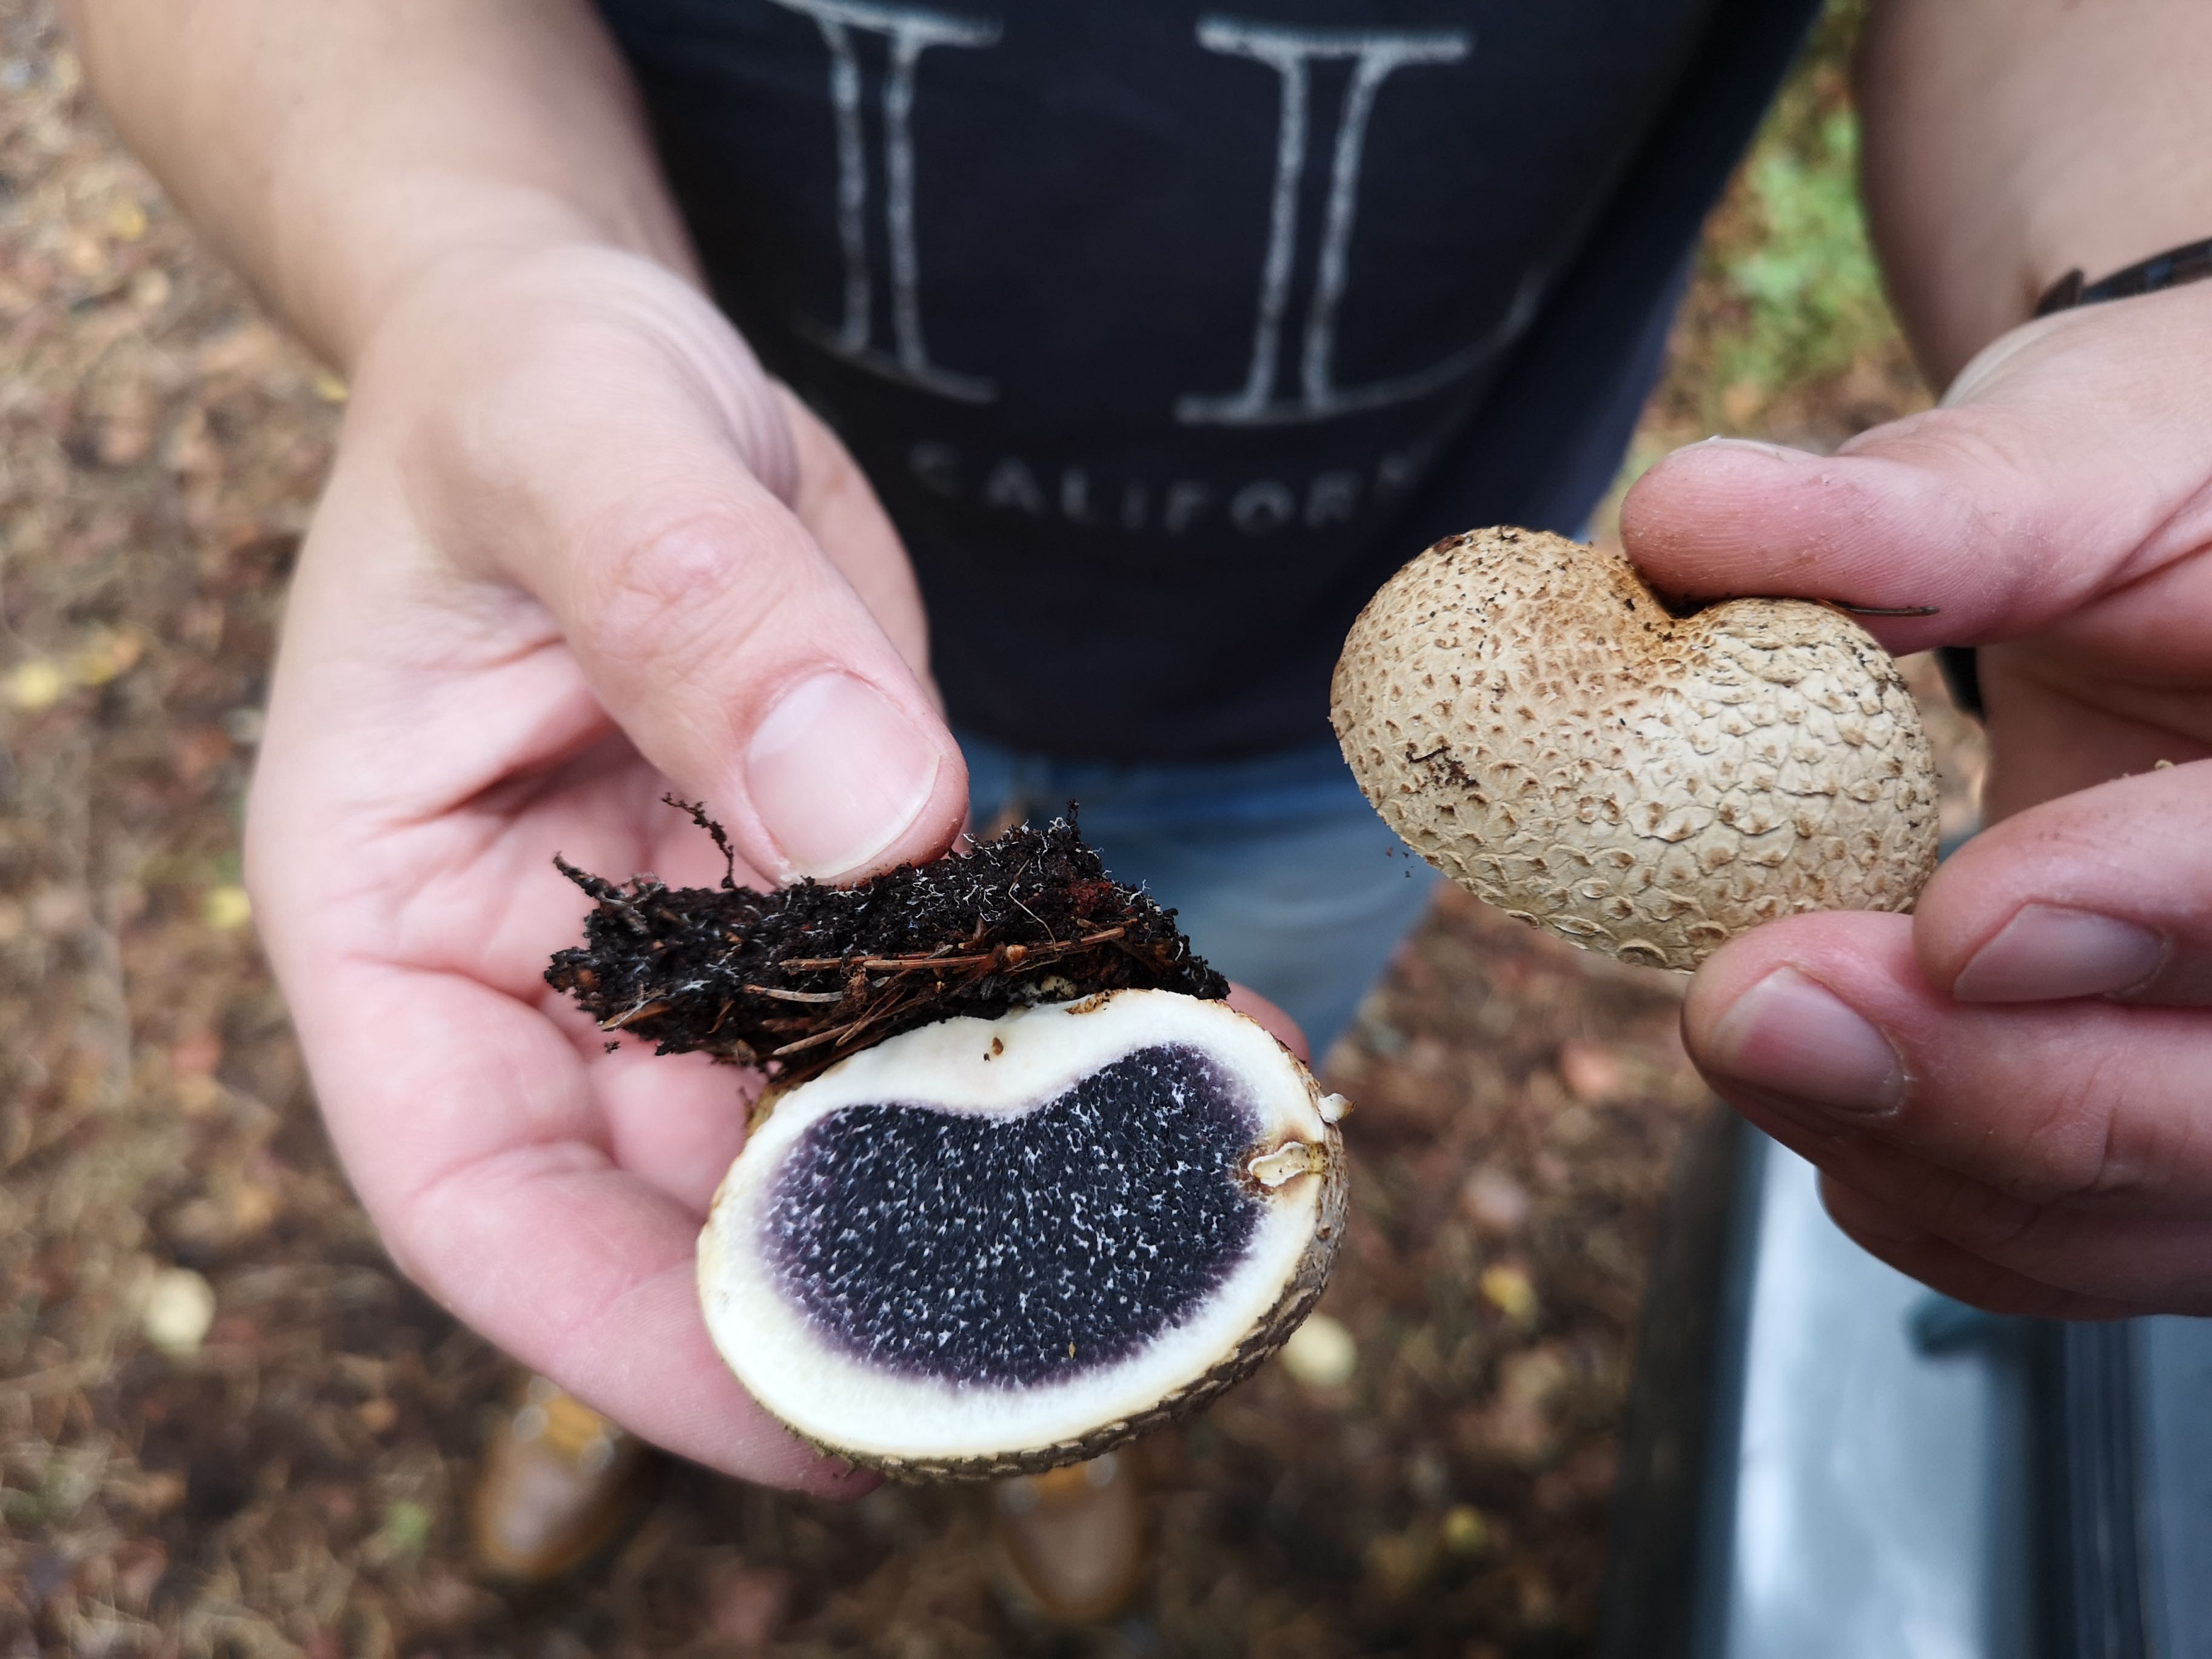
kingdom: Fungi
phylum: Basidiomycota
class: Agaricomycetes
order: Boletales
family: Sclerodermataceae
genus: Scleroderma
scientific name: Scleroderma citrinum
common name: almindelig bruskbold
